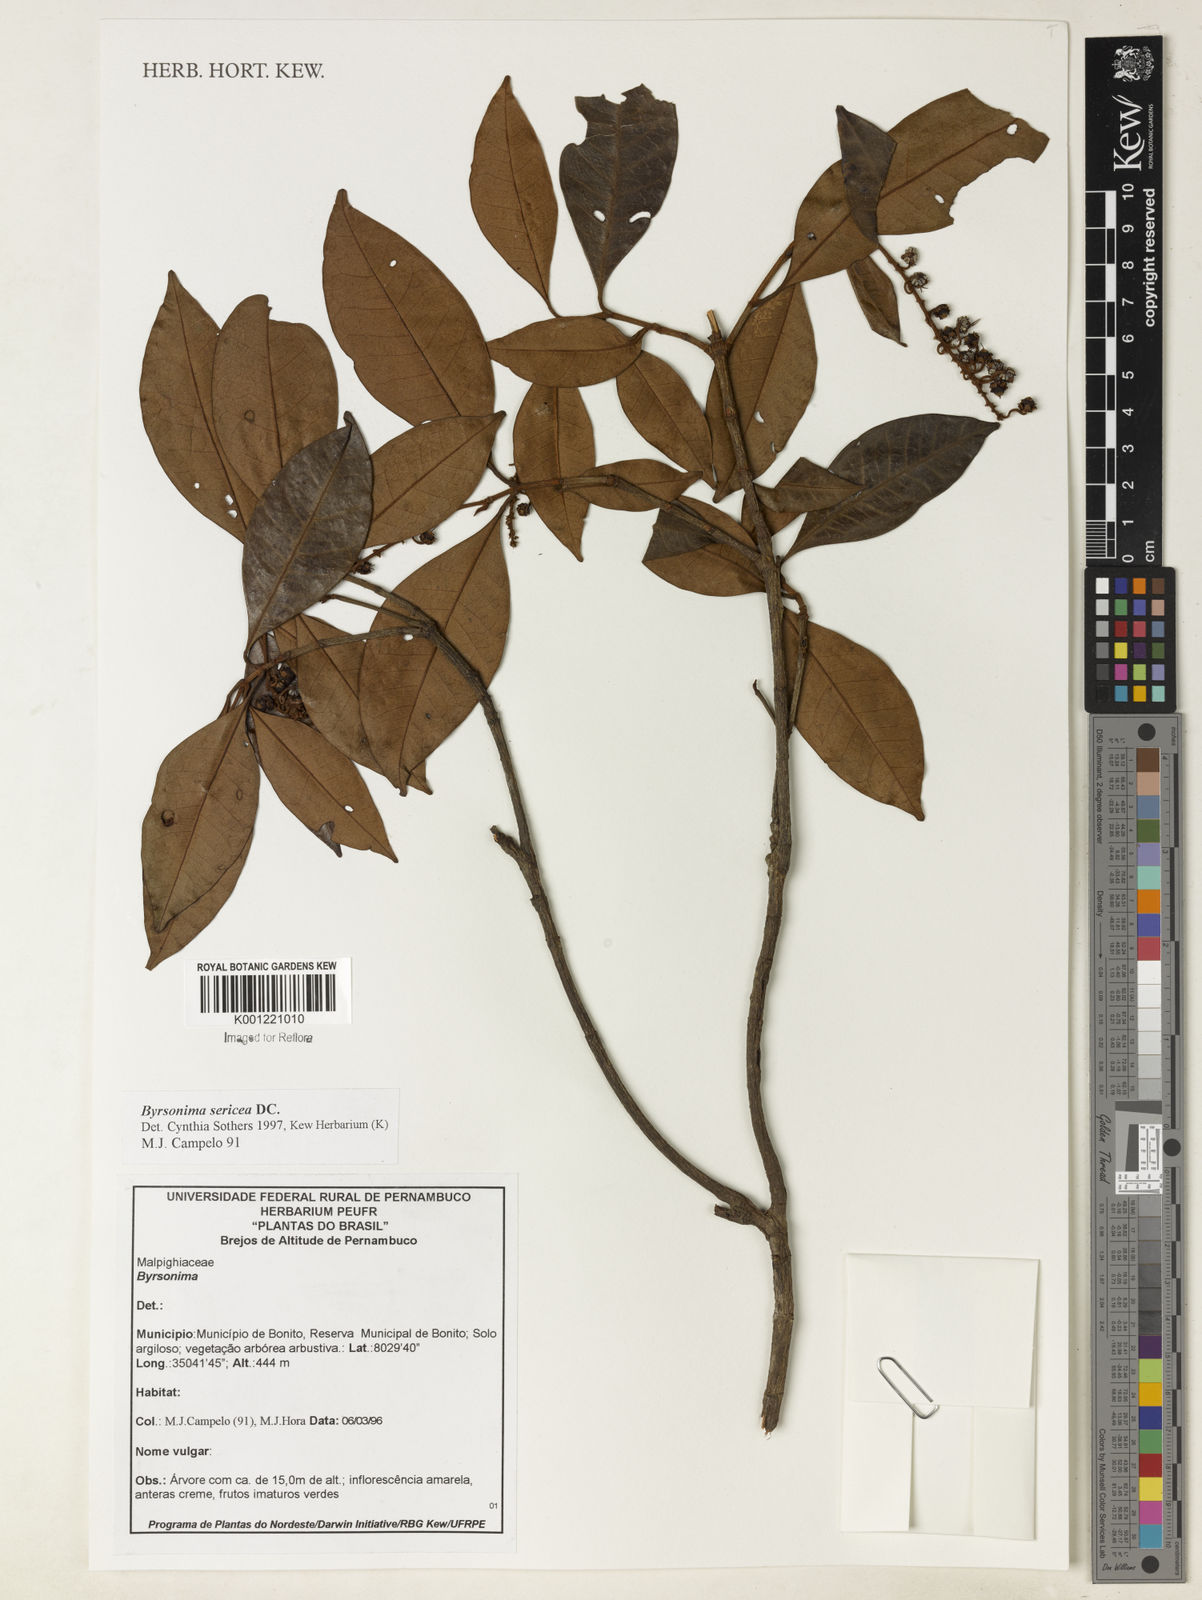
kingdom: Plantae
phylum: Tracheophyta
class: Magnoliopsida
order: Malpighiales
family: Malpighiaceae
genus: Byrsonima
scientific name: Byrsonima sericea
